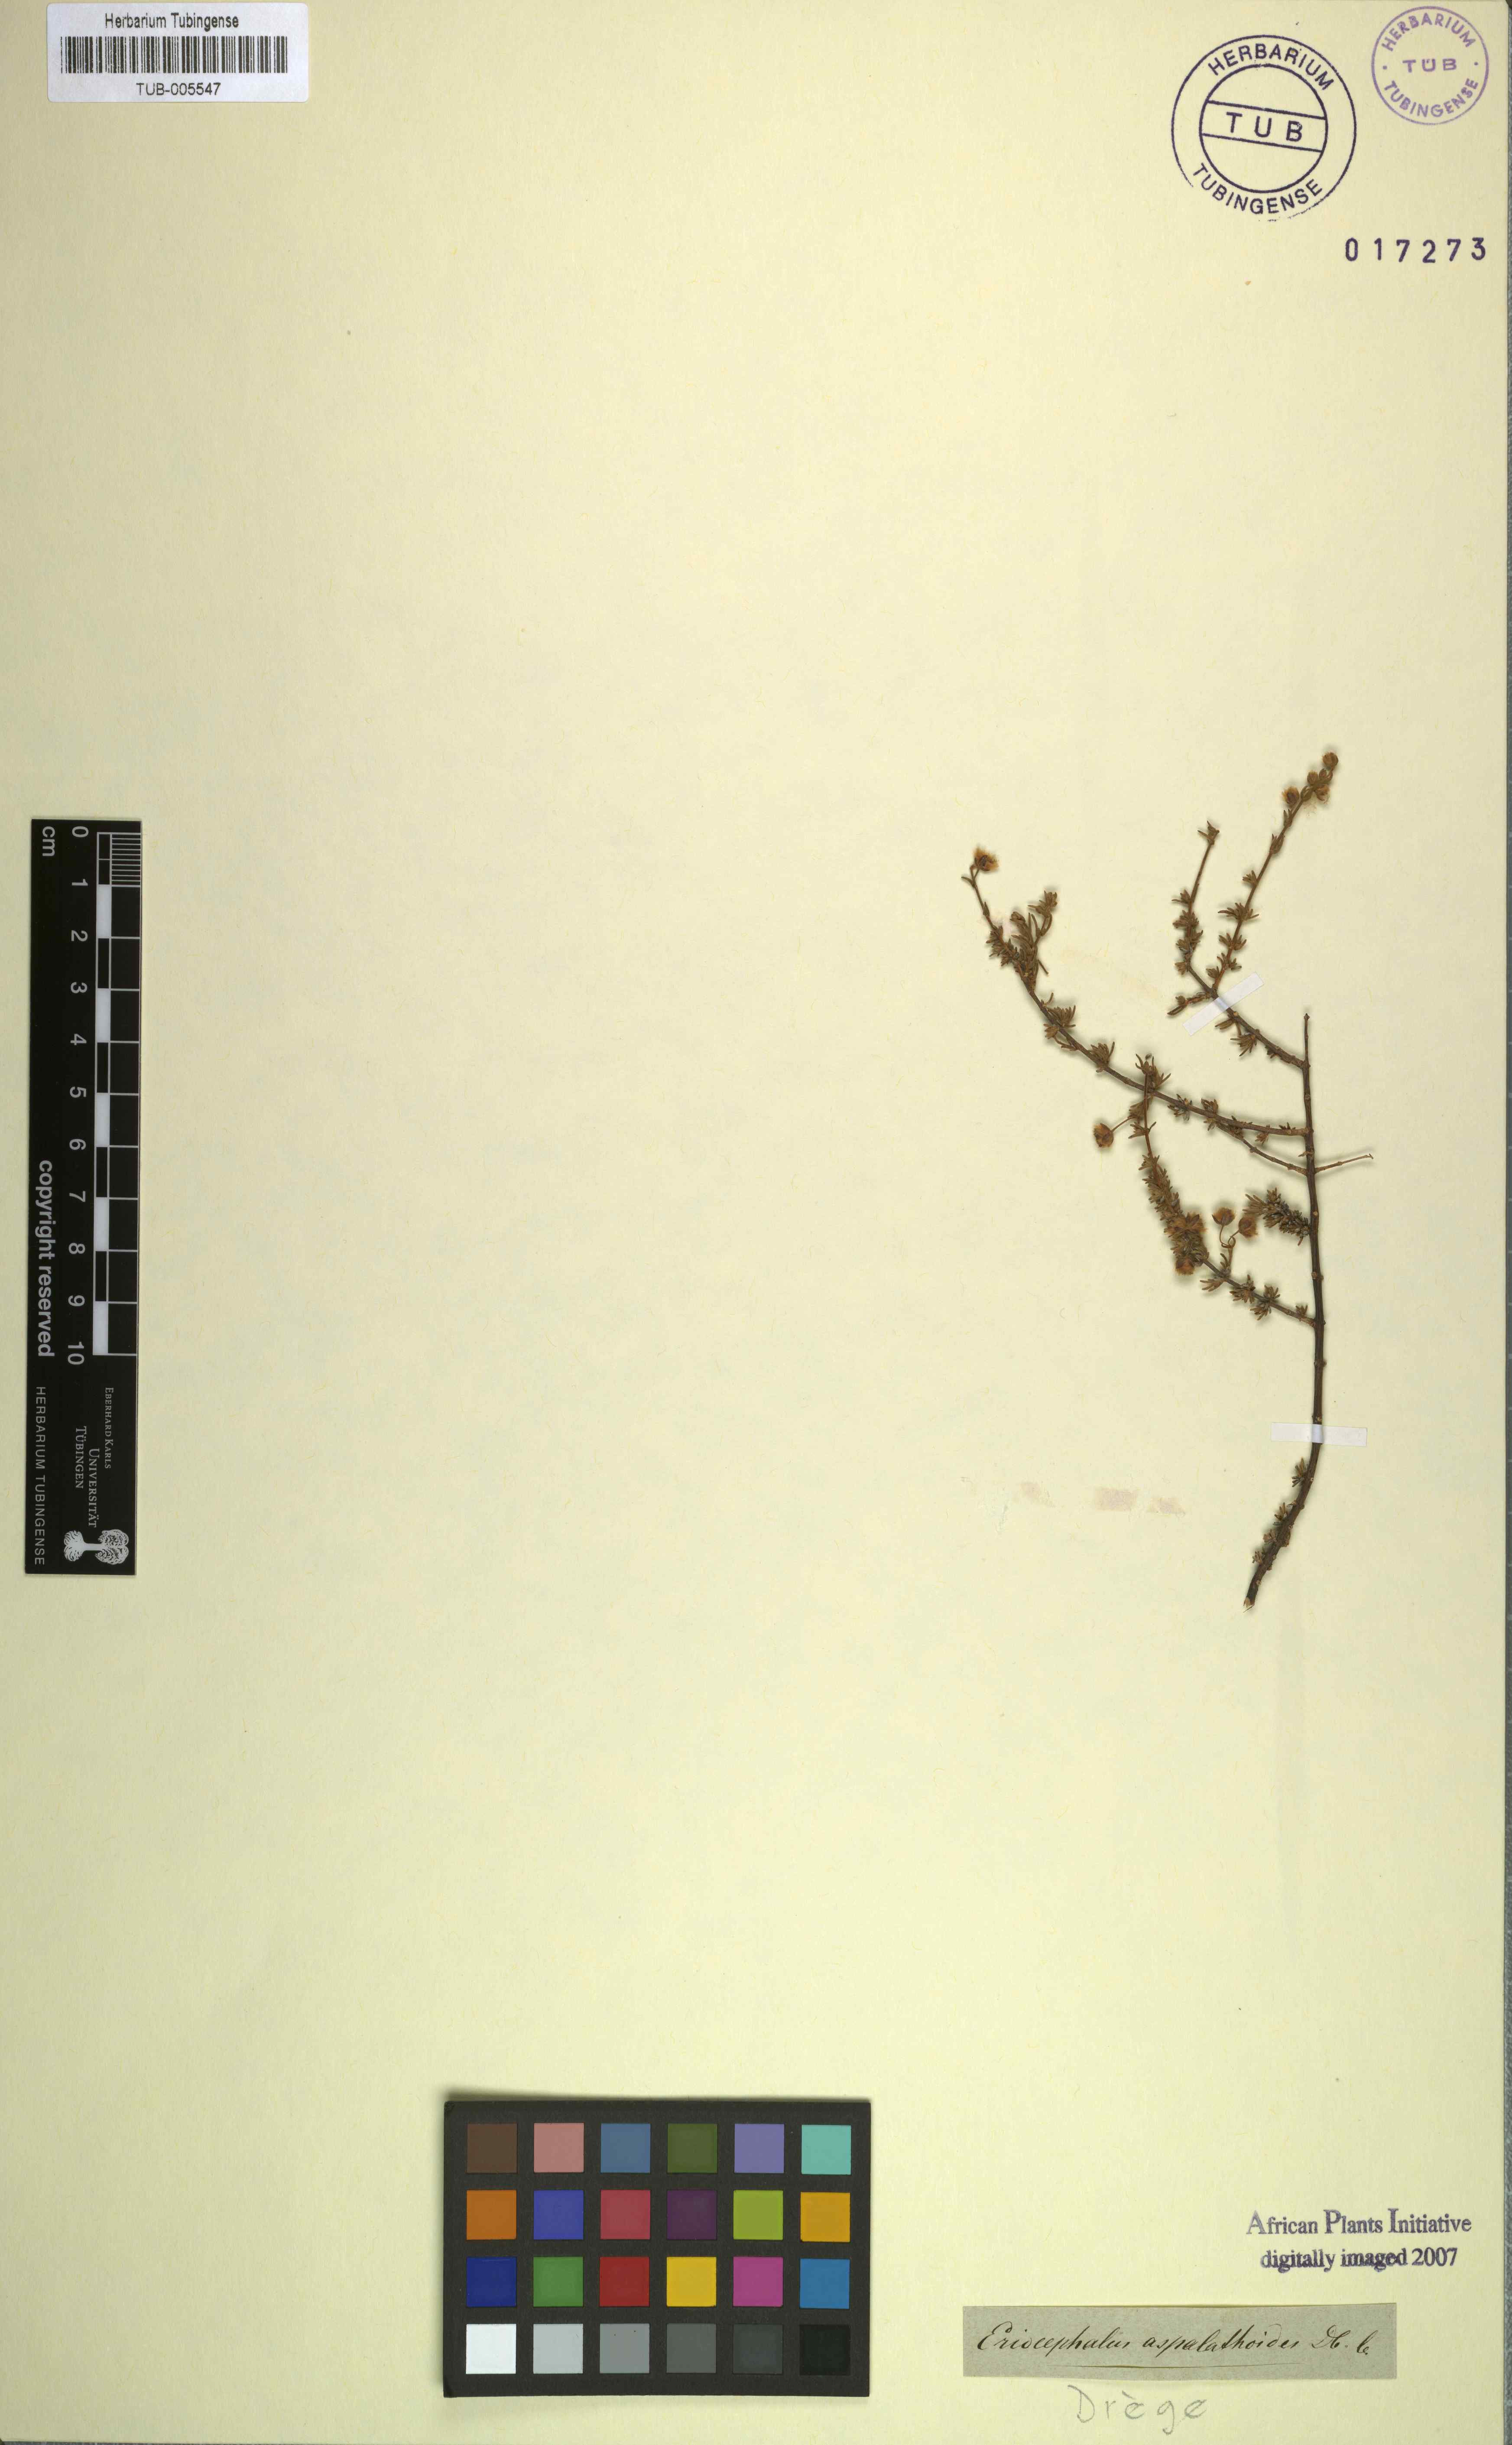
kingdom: Plantae
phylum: Tracheophyta
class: Magnoliopsida
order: Asterales
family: Asteraceae
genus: Eriocephalus
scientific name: Eriocephalus decussatus
